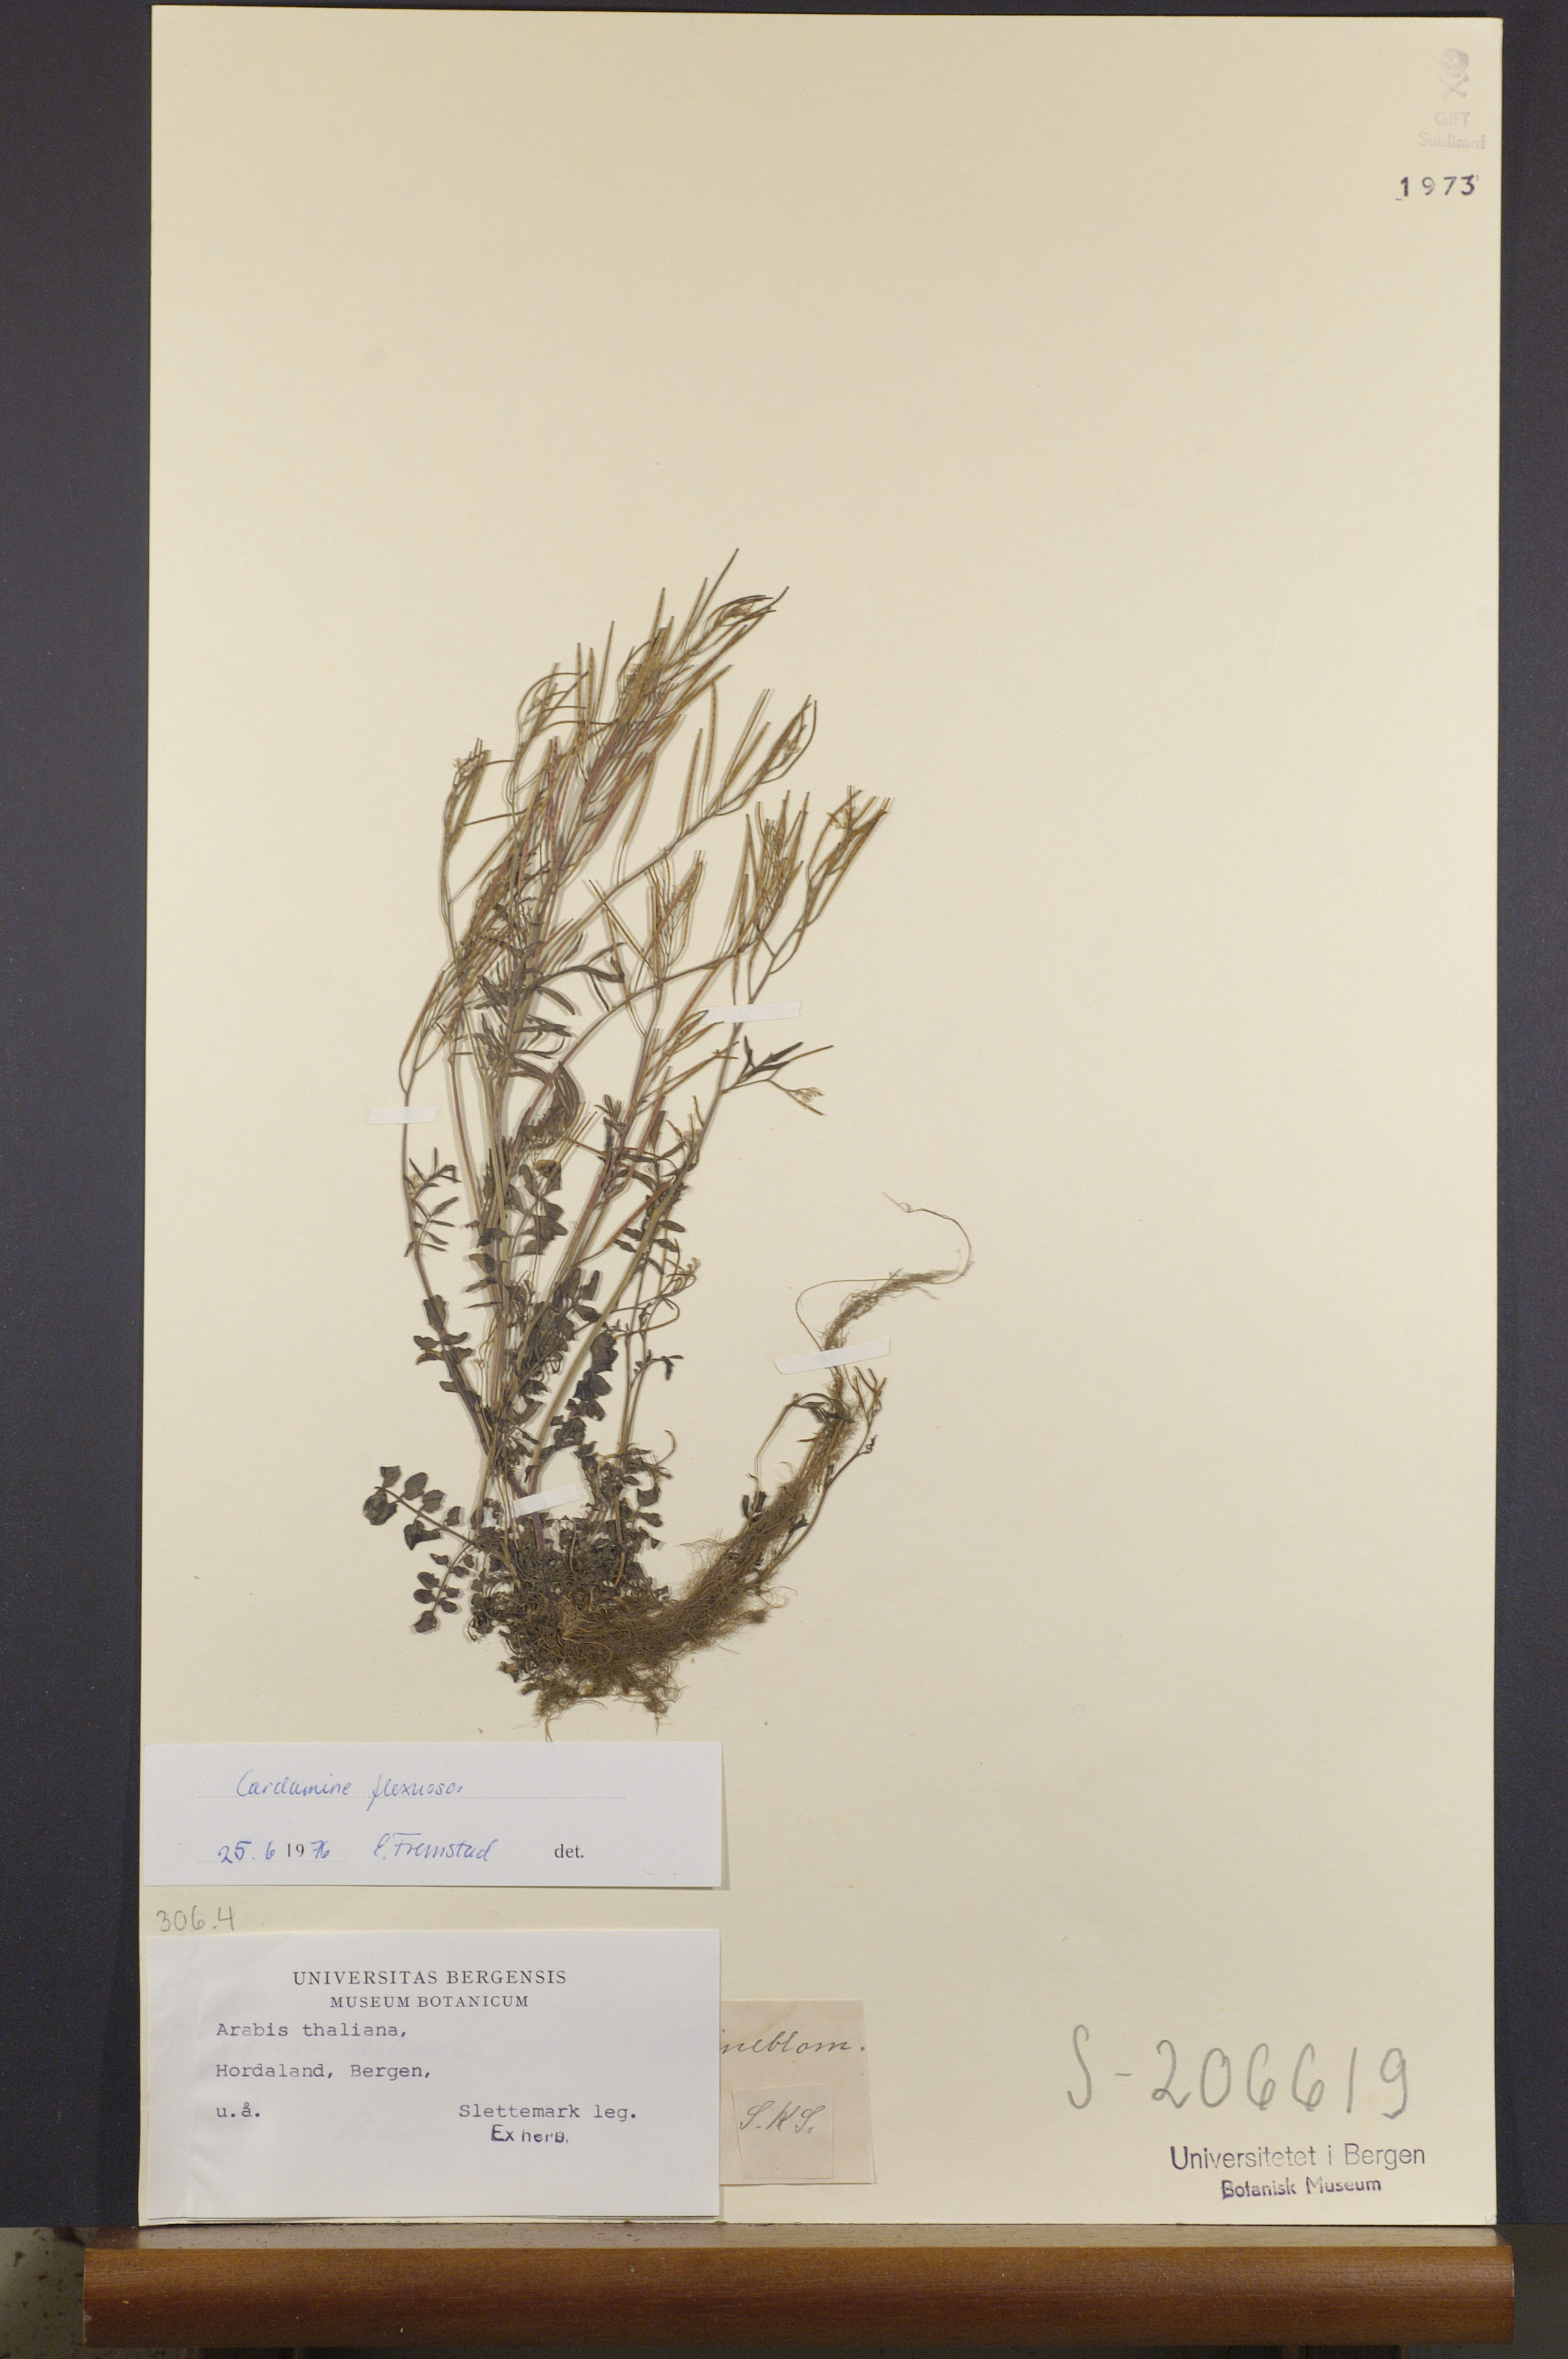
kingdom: Plantae
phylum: Tracheophyta
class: Magnoliopsida
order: Brassicales
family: Brassicaceae
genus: Cardamine
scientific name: Cardamine flexuosa
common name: Woodland bittercress
